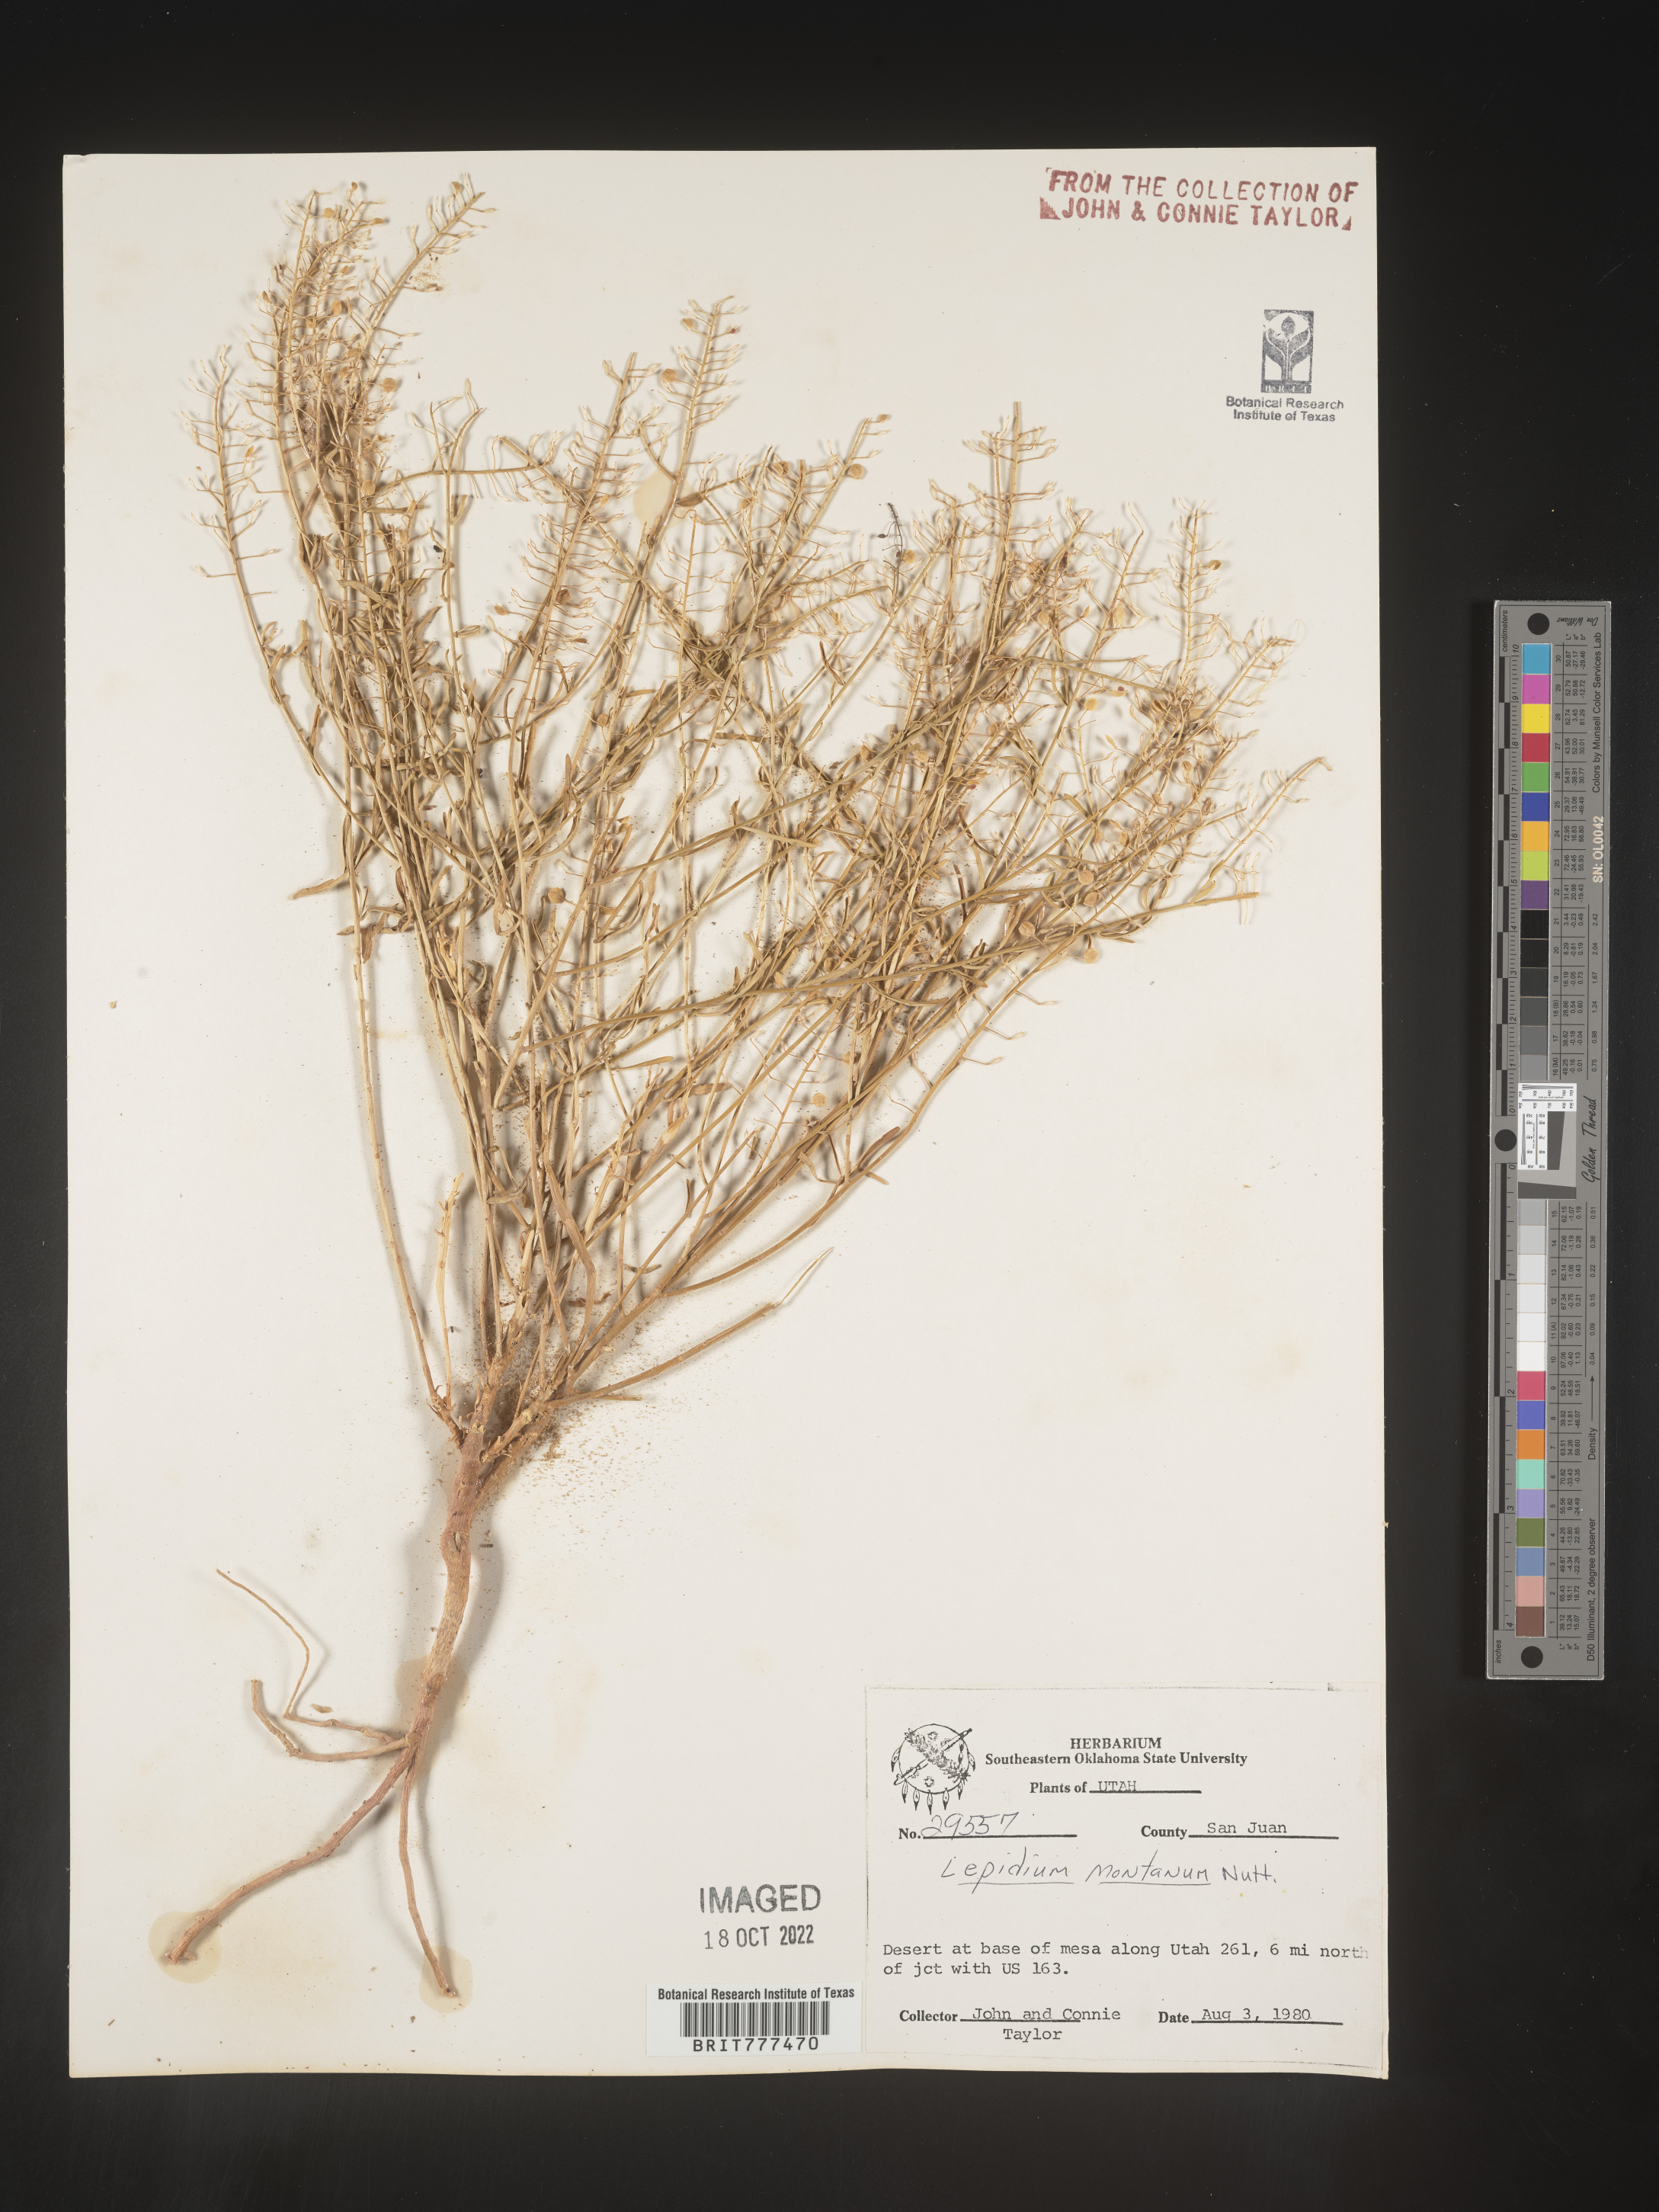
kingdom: Plantae
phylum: Tracheophyta
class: Magnoliopsida
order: Brassicales
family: Brassicaceae
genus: Lepidium
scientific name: Lepidium montanum
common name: Mountain pepperplant
